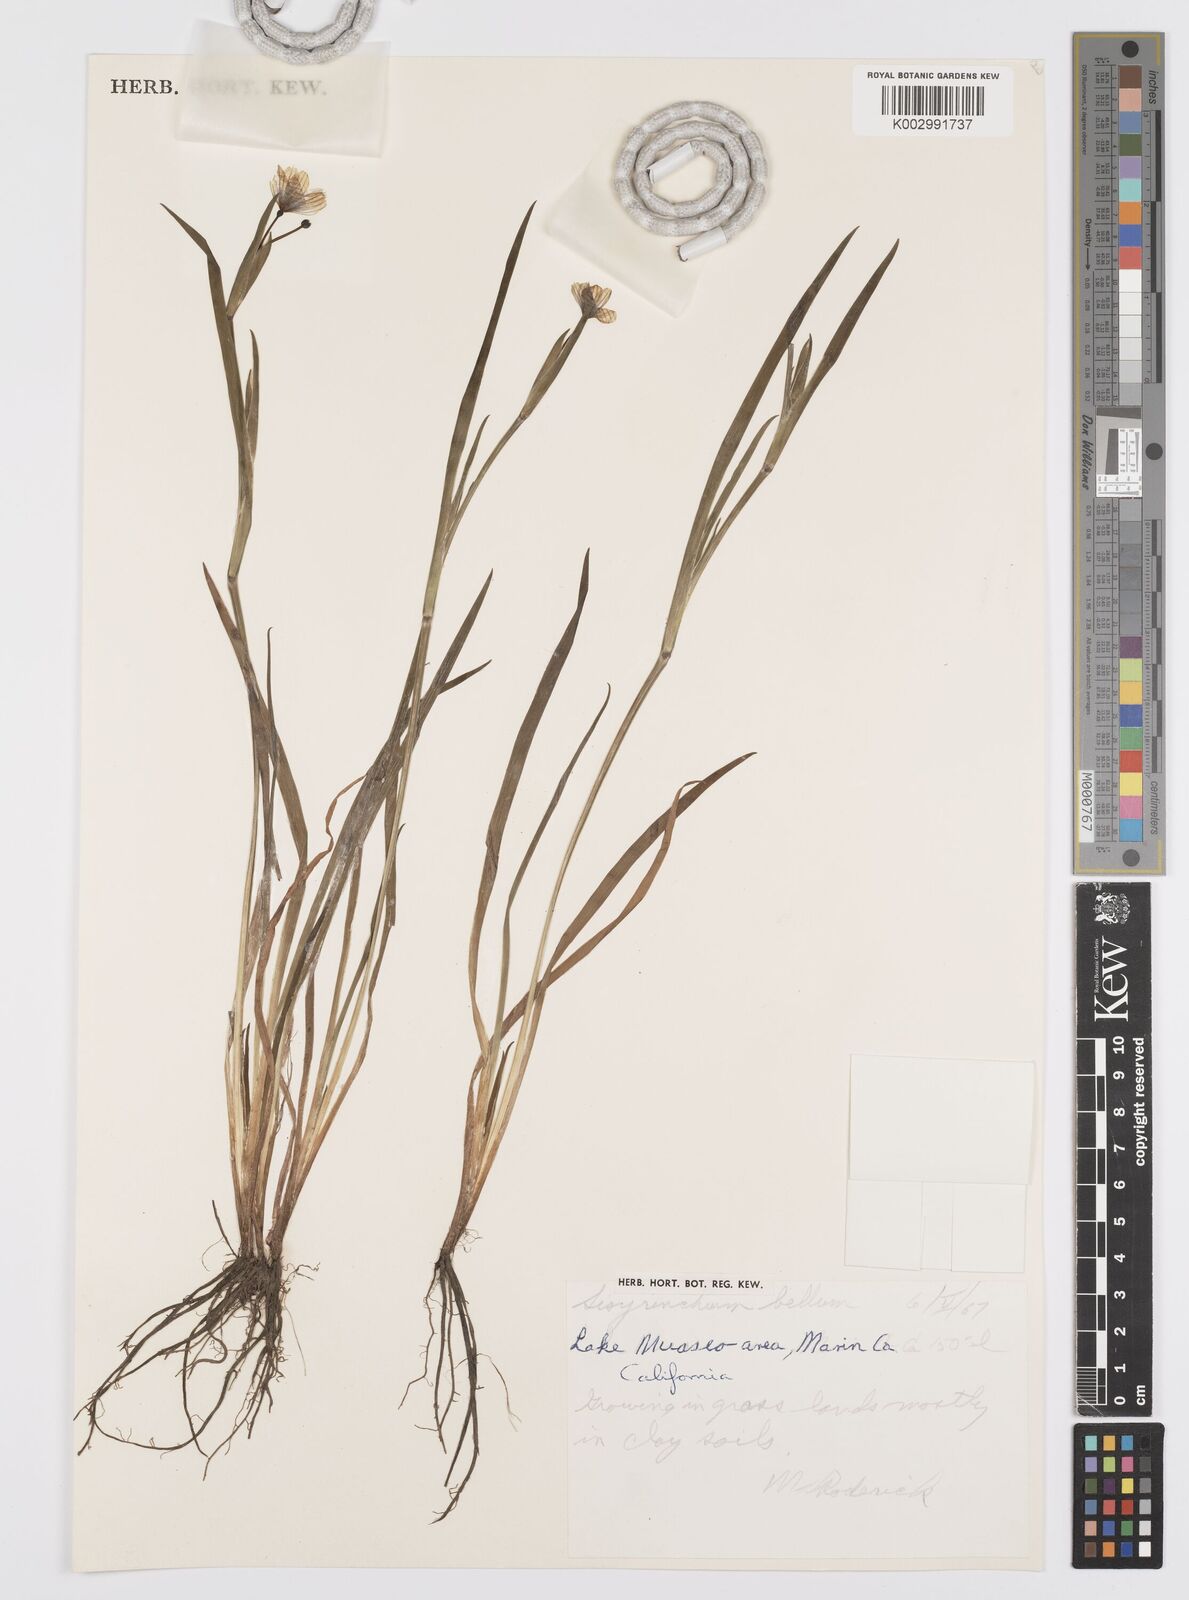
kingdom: Plantae
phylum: Tracheophyta
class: Liliopsida
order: Asparagales
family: Iridaceae
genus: Sisyrinchium
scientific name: Sisyrinchium bellum
